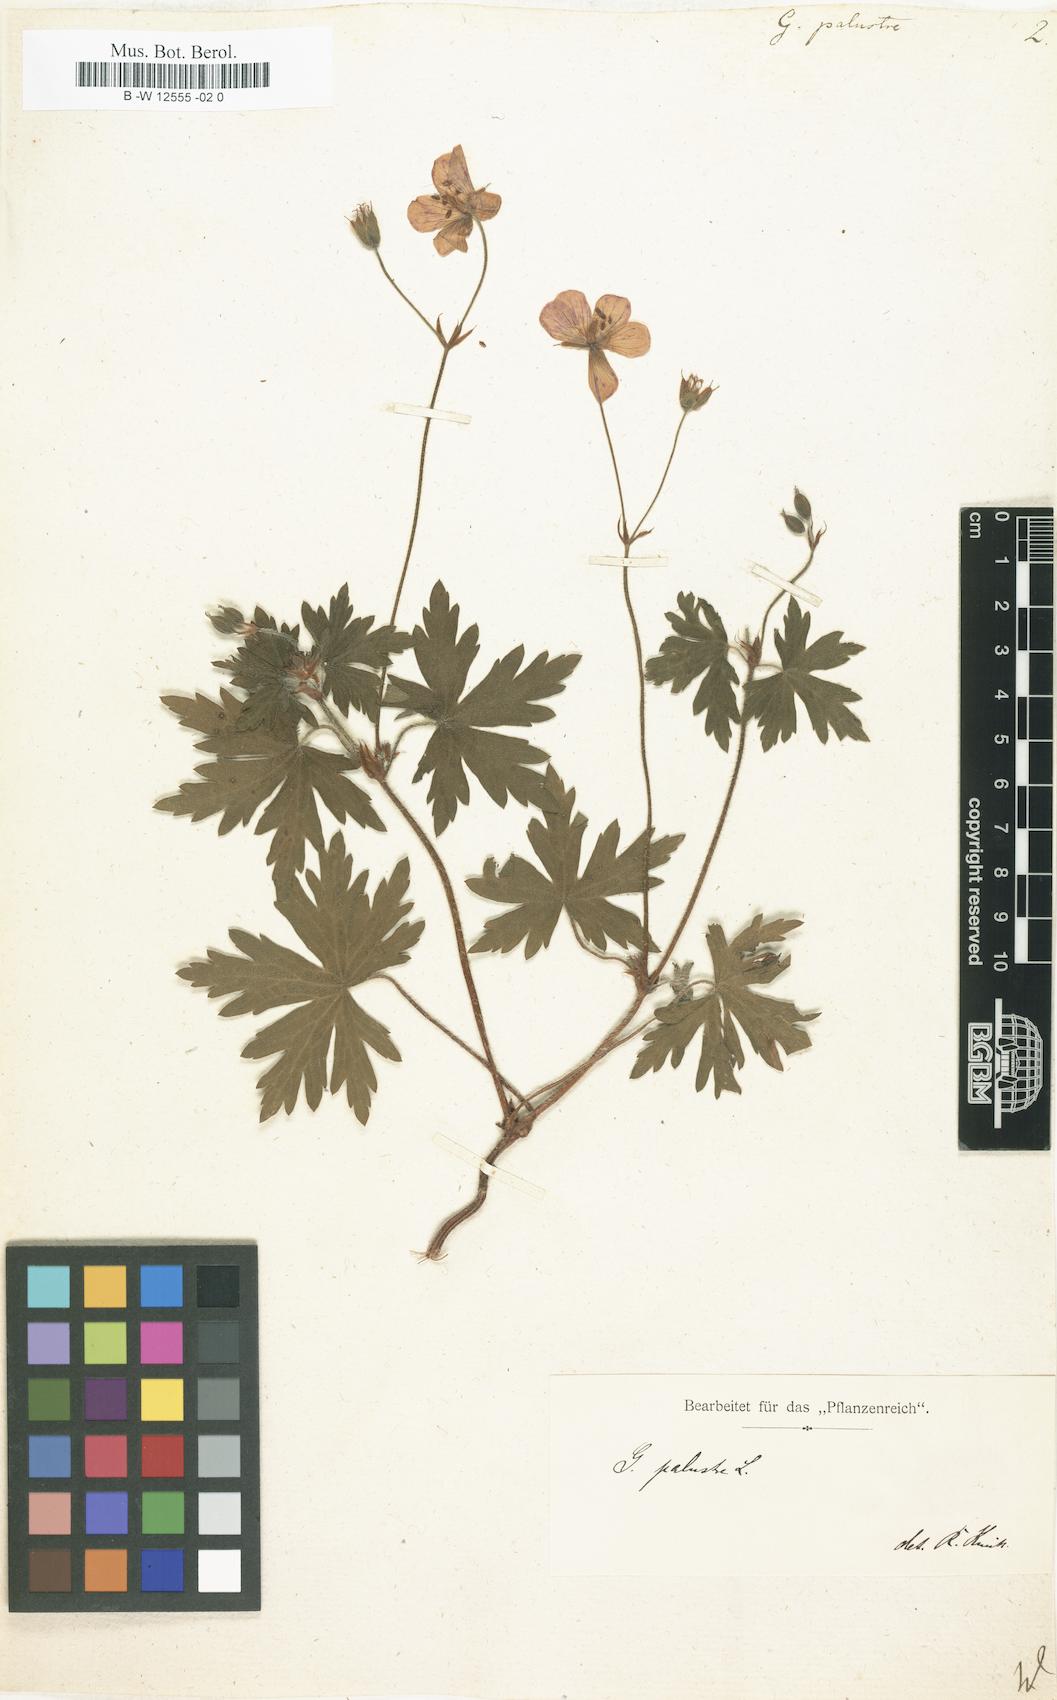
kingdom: Plantae
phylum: Tracheophyta
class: Magnoliopsida
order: Geraniales
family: Geraniaceae
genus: Geranium
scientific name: Geranium palustre
